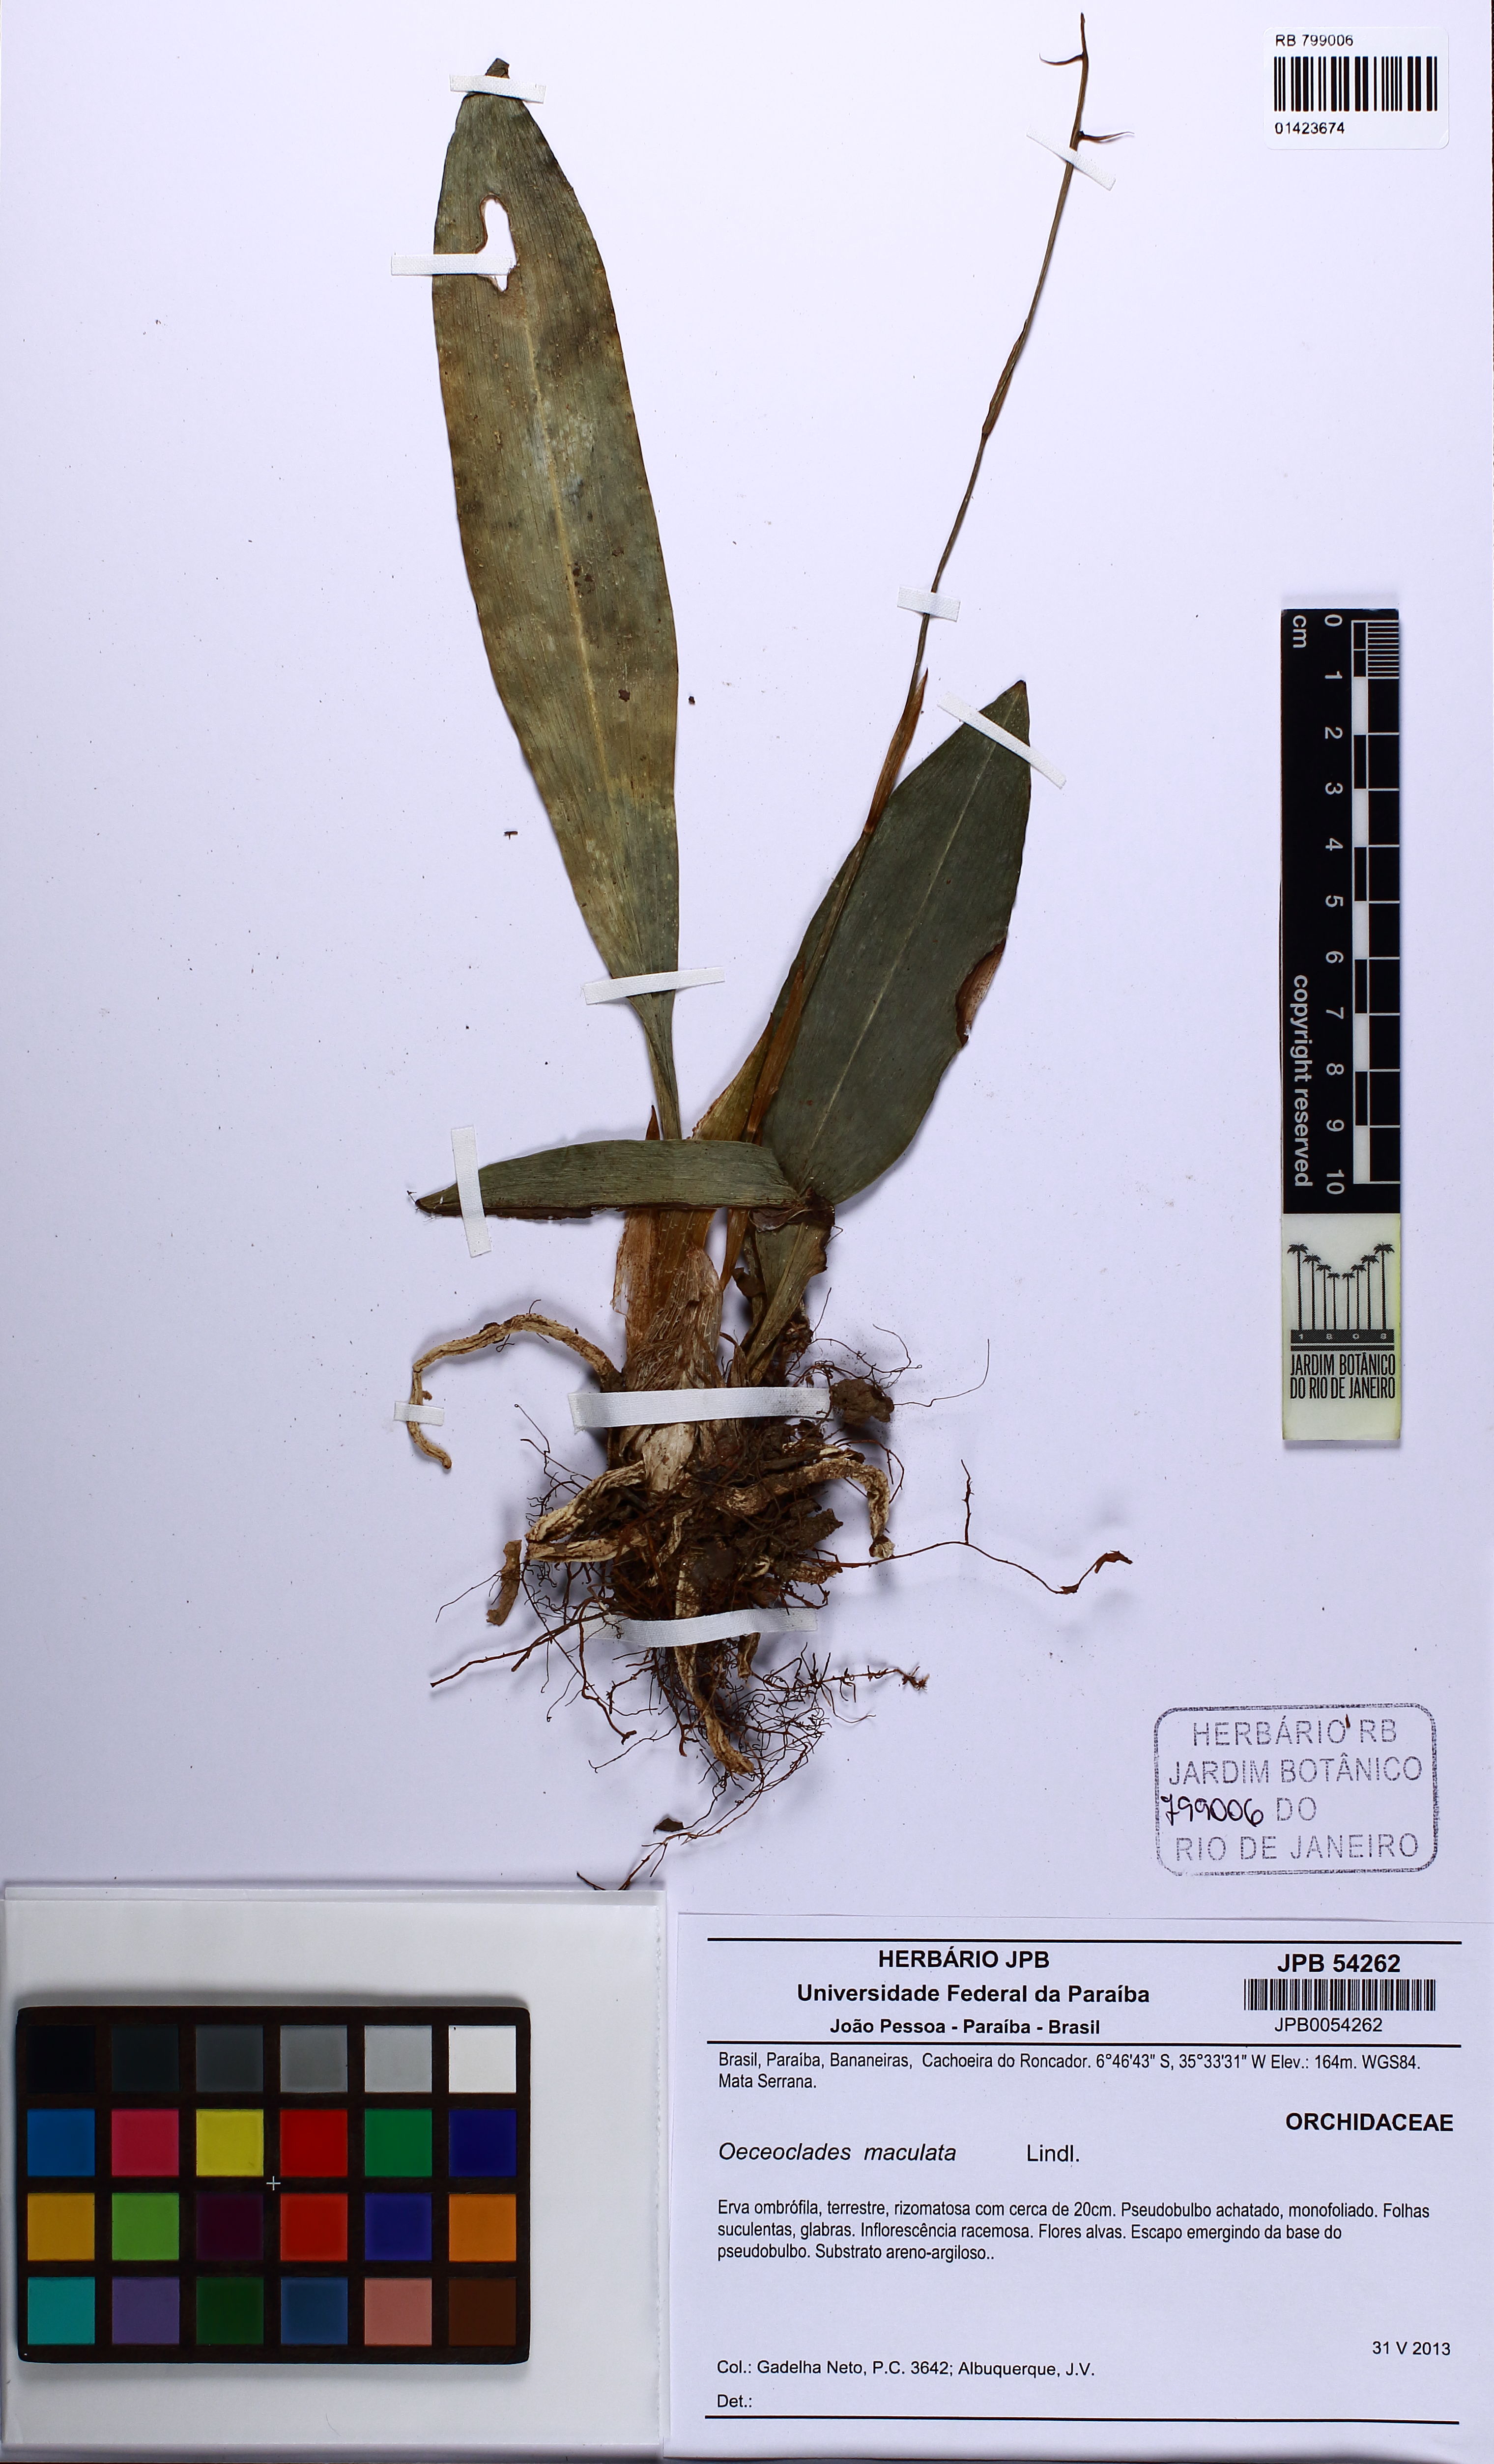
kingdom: Plantae
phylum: Tracheophyta
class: Liliopsida
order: Asparagales
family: Orchidaceae
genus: Eulophia
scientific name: Eulophia maculata
